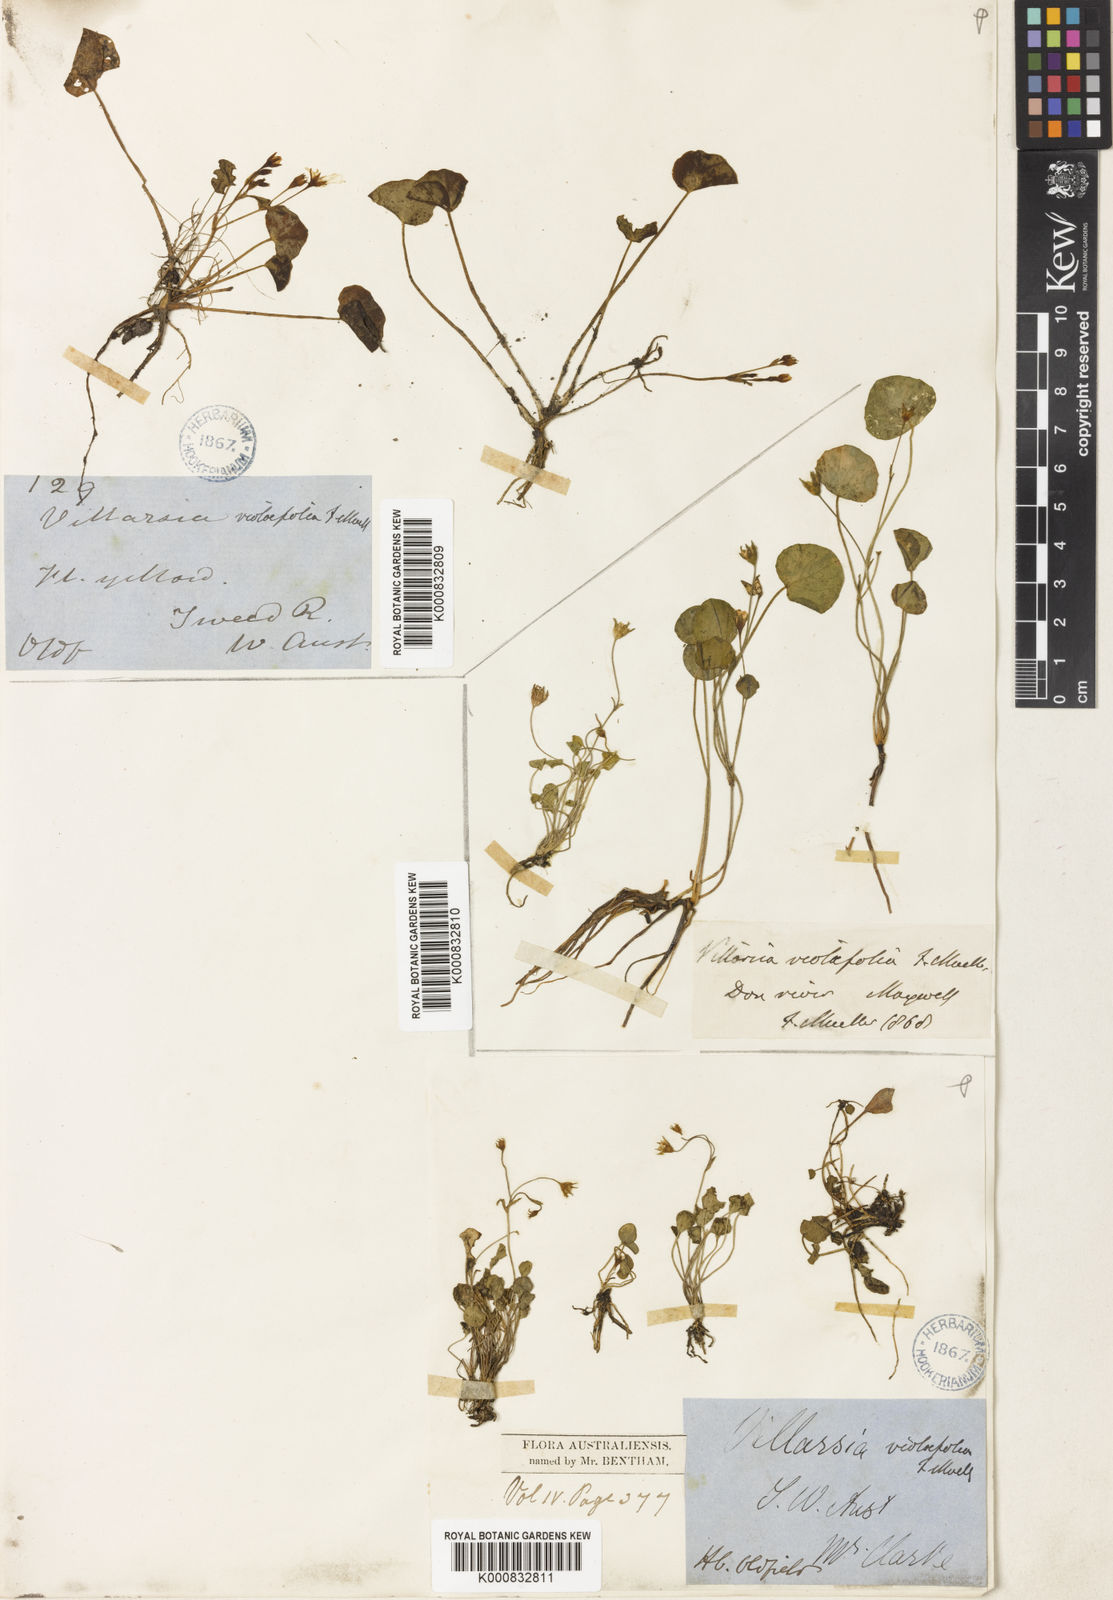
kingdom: Plantae
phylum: Tracheophyta
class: Magnoliopsida
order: Asterales
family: Menyanthaceae
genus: Liparophyllum
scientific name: Liparophyllum violifolium
